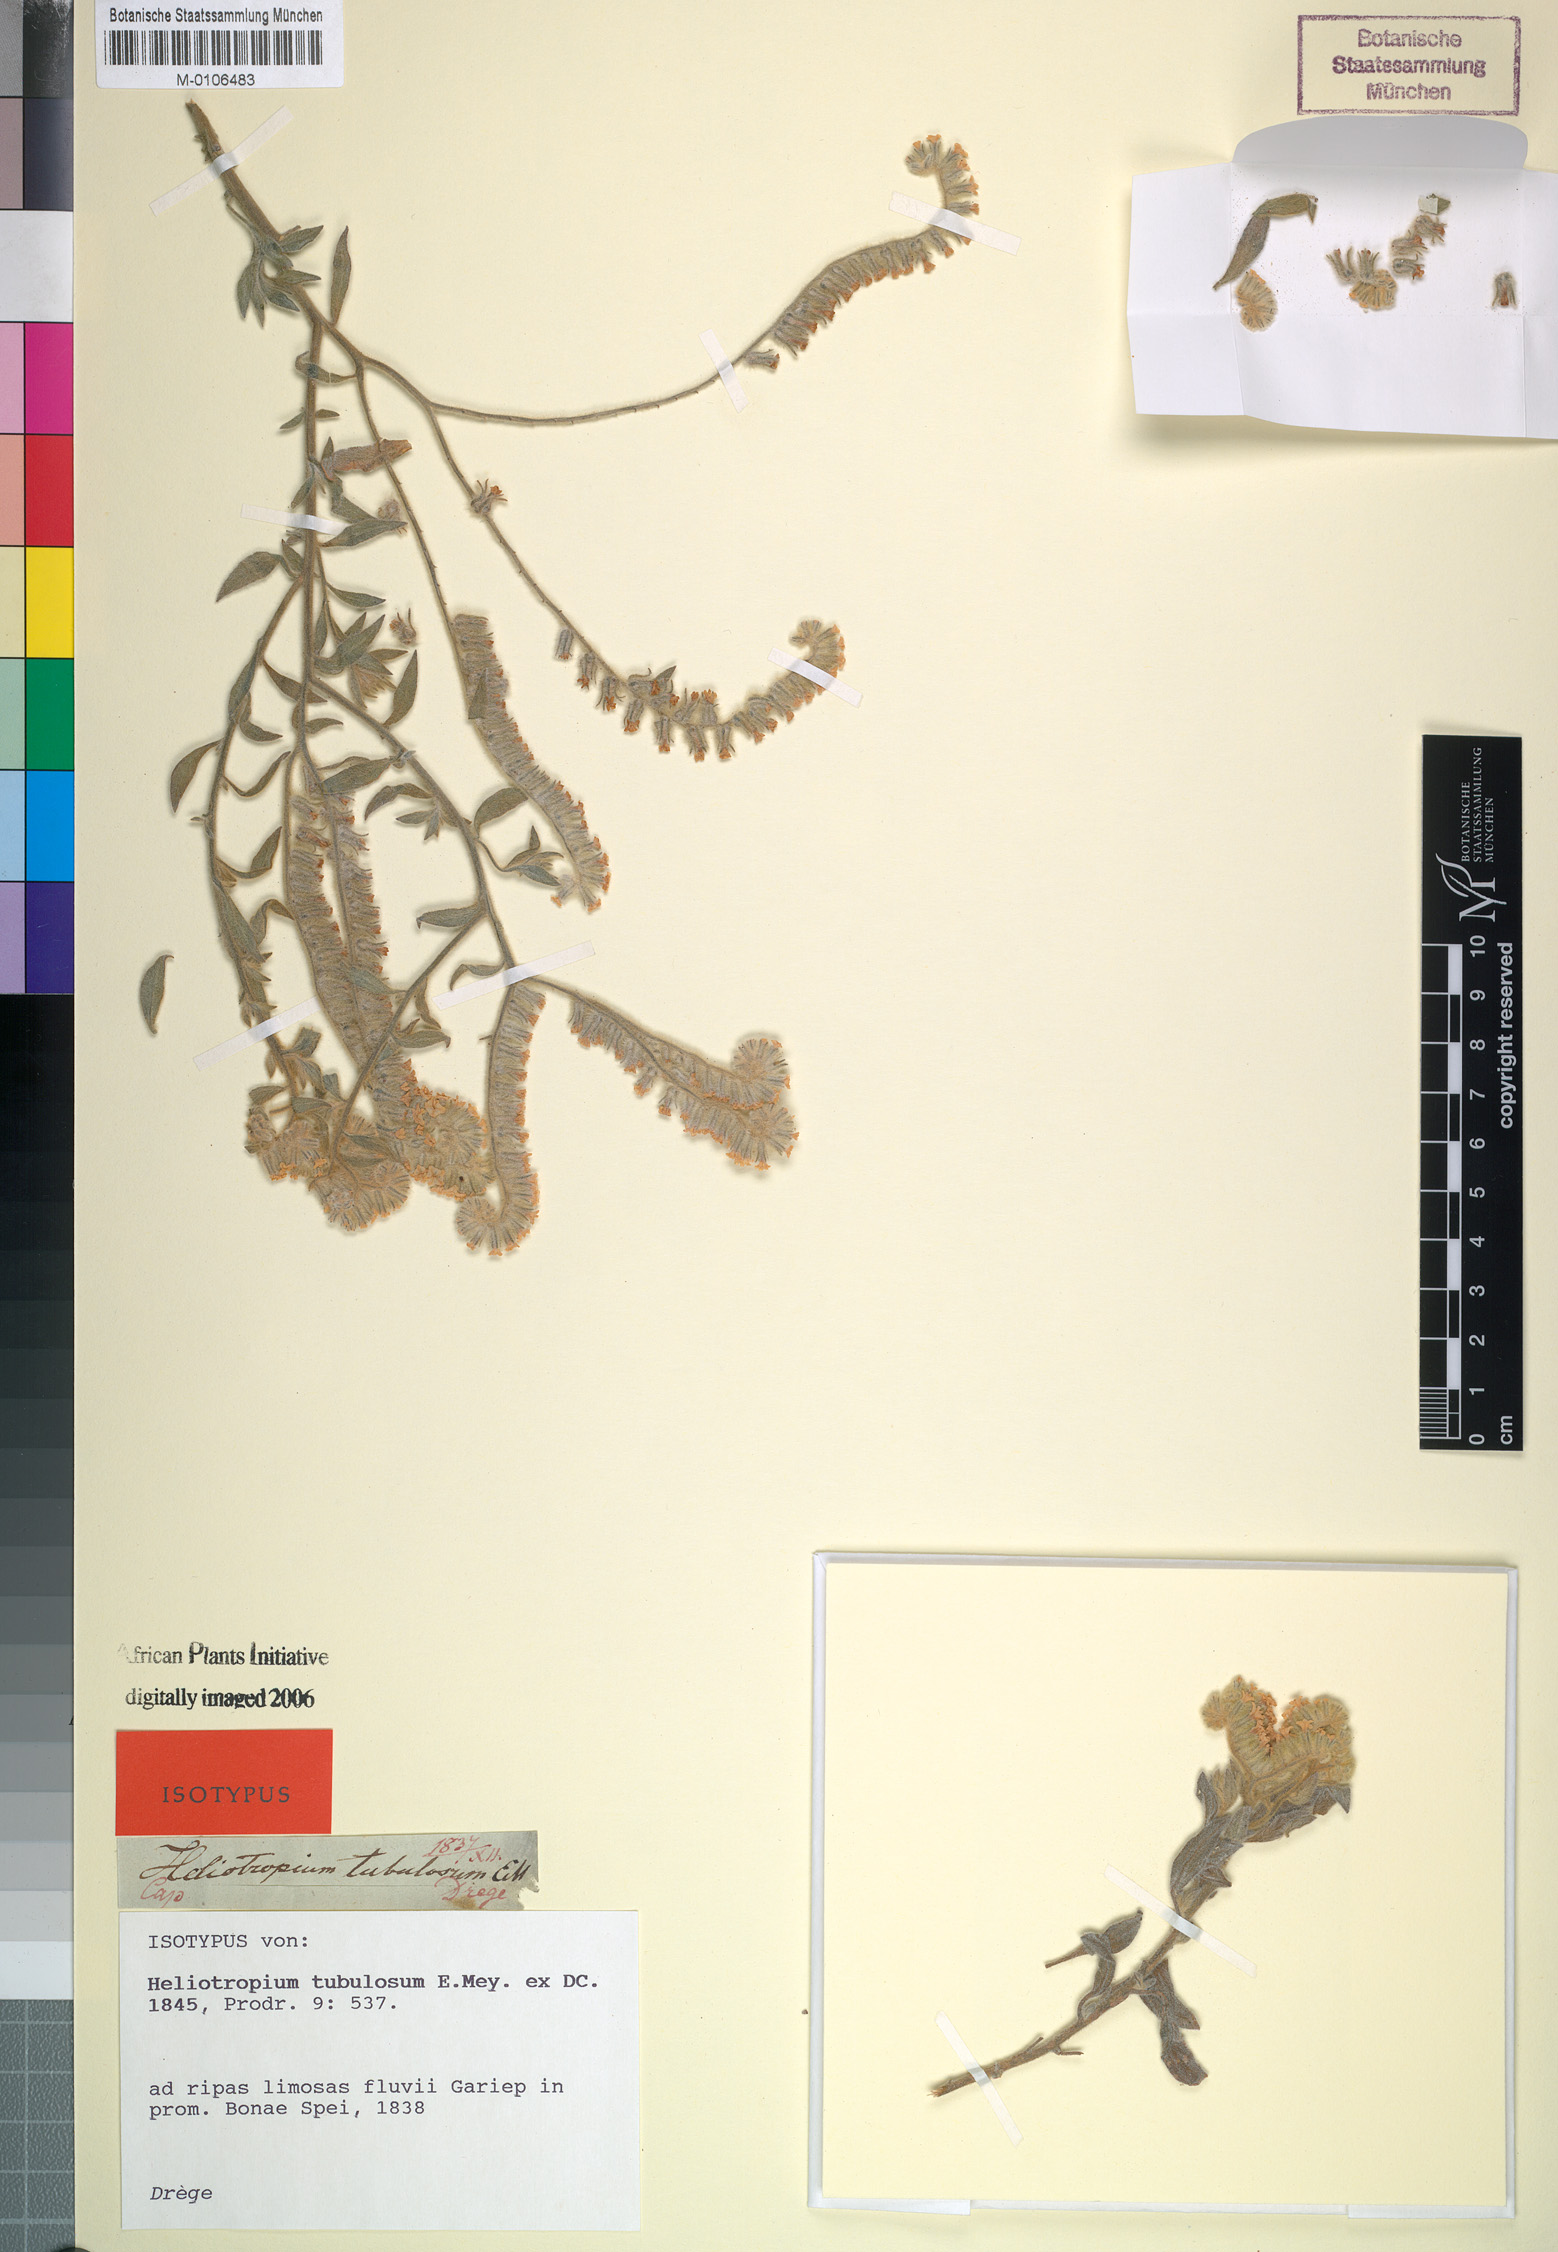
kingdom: Plantae
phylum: Tracheophyta
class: Magnoliopsida
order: Boraginales
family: Heliotropiaceae
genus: Heliotropium
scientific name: Heliotropium tubulosum
